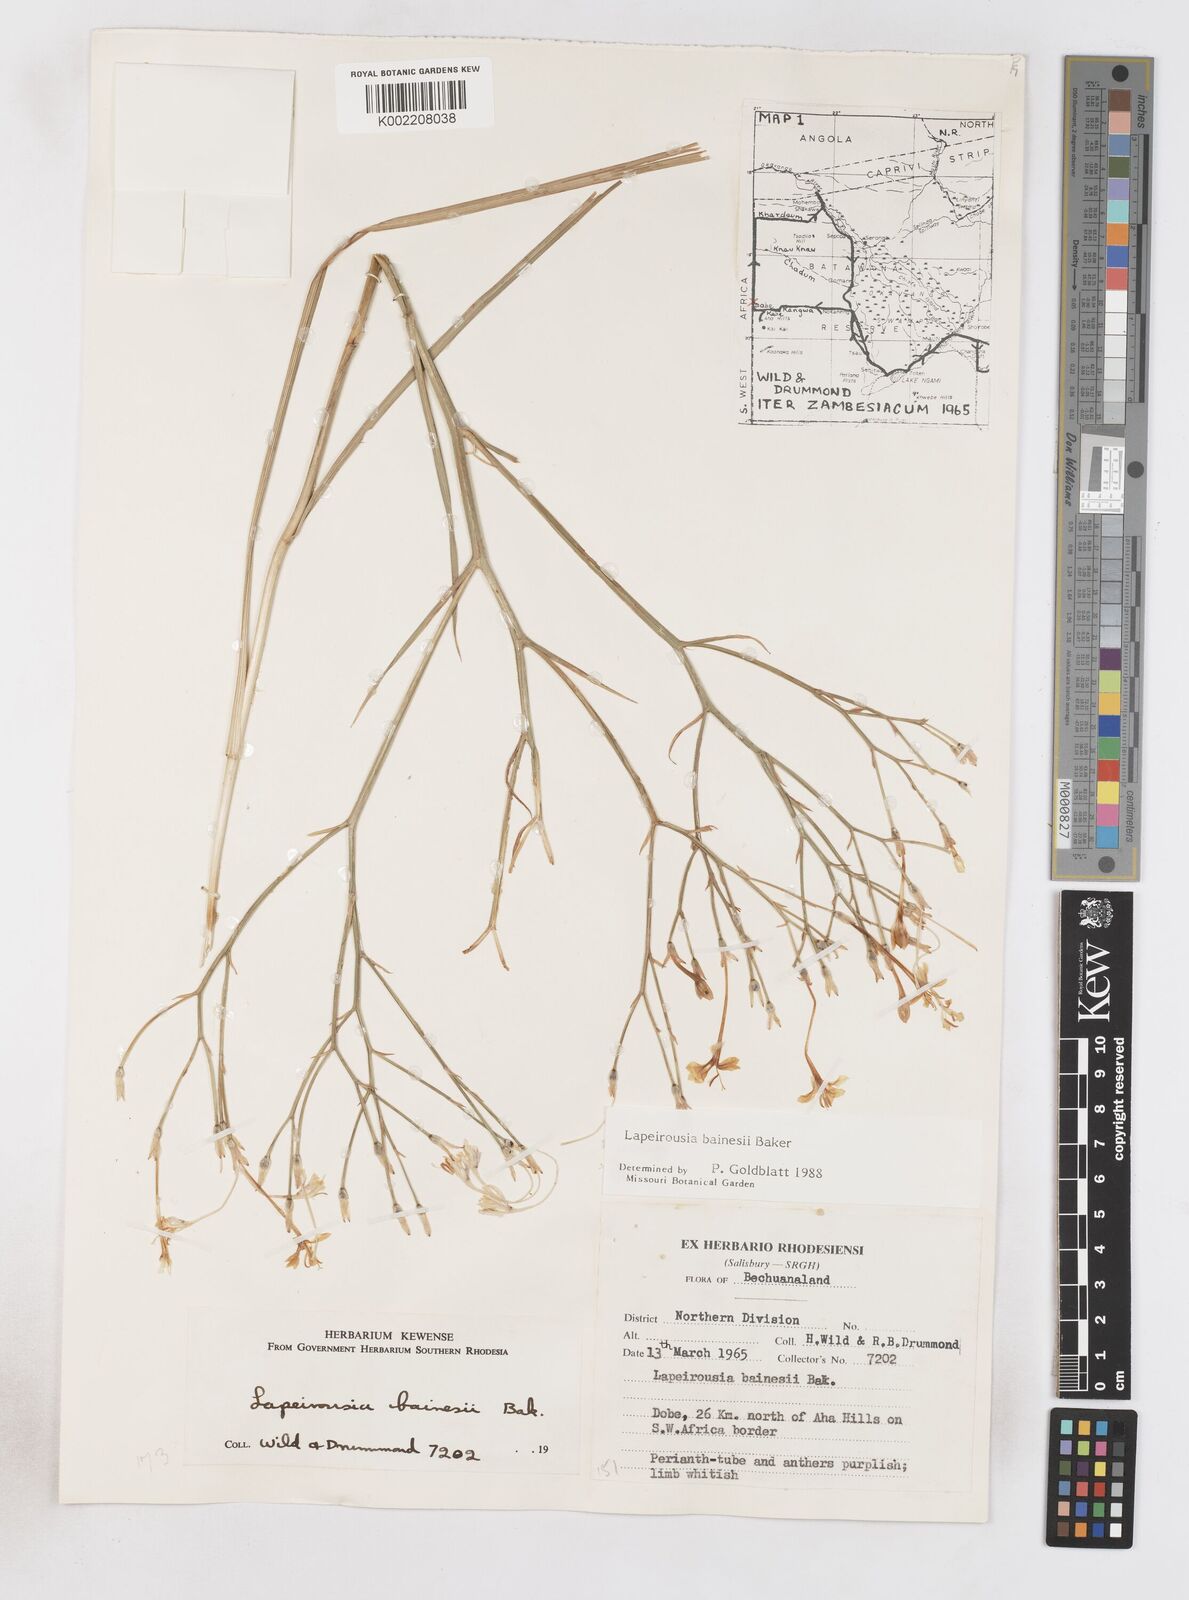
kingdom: Plantae
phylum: Tracheophyta
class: Liliopsida
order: Asparagales
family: Iridaceae
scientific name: Iridaceae
